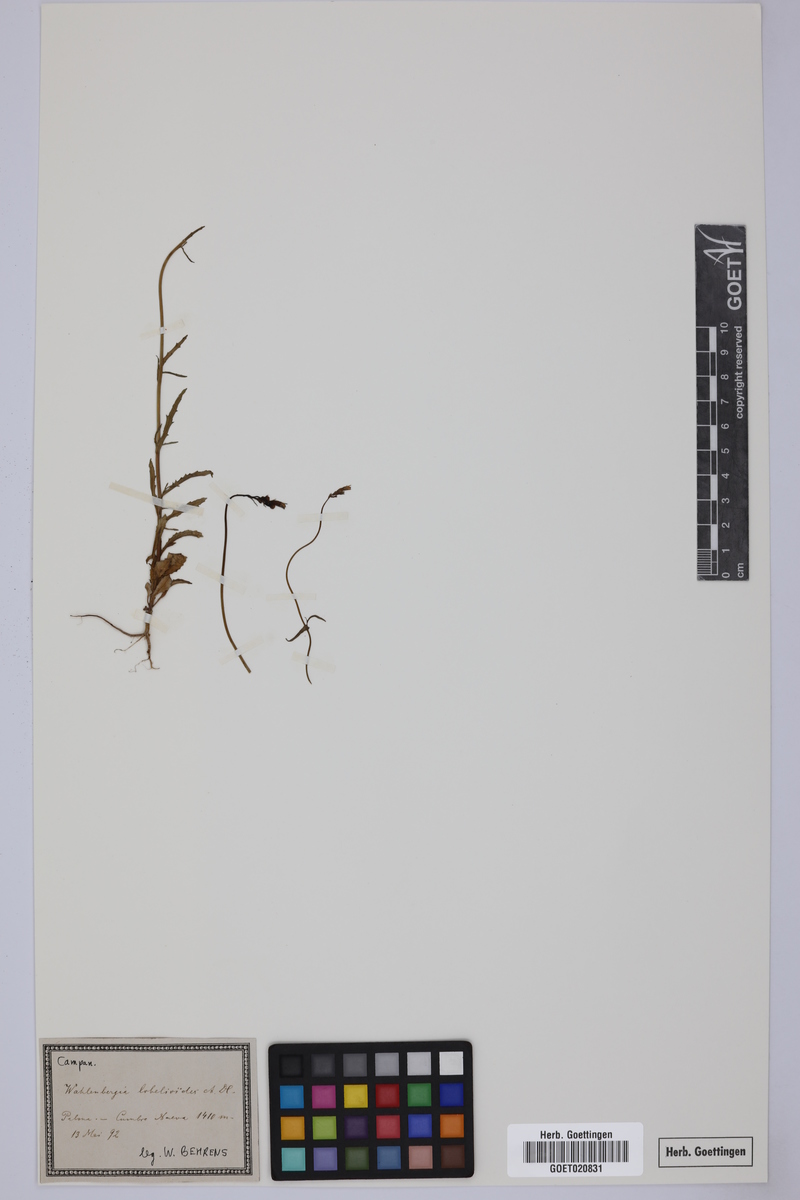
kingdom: Plantae
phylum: Tracheophyta
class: Magnoliopsida
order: Asterales
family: Campanulaceae
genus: Wahlenbergia
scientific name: Wahlenbergia lobelioides
